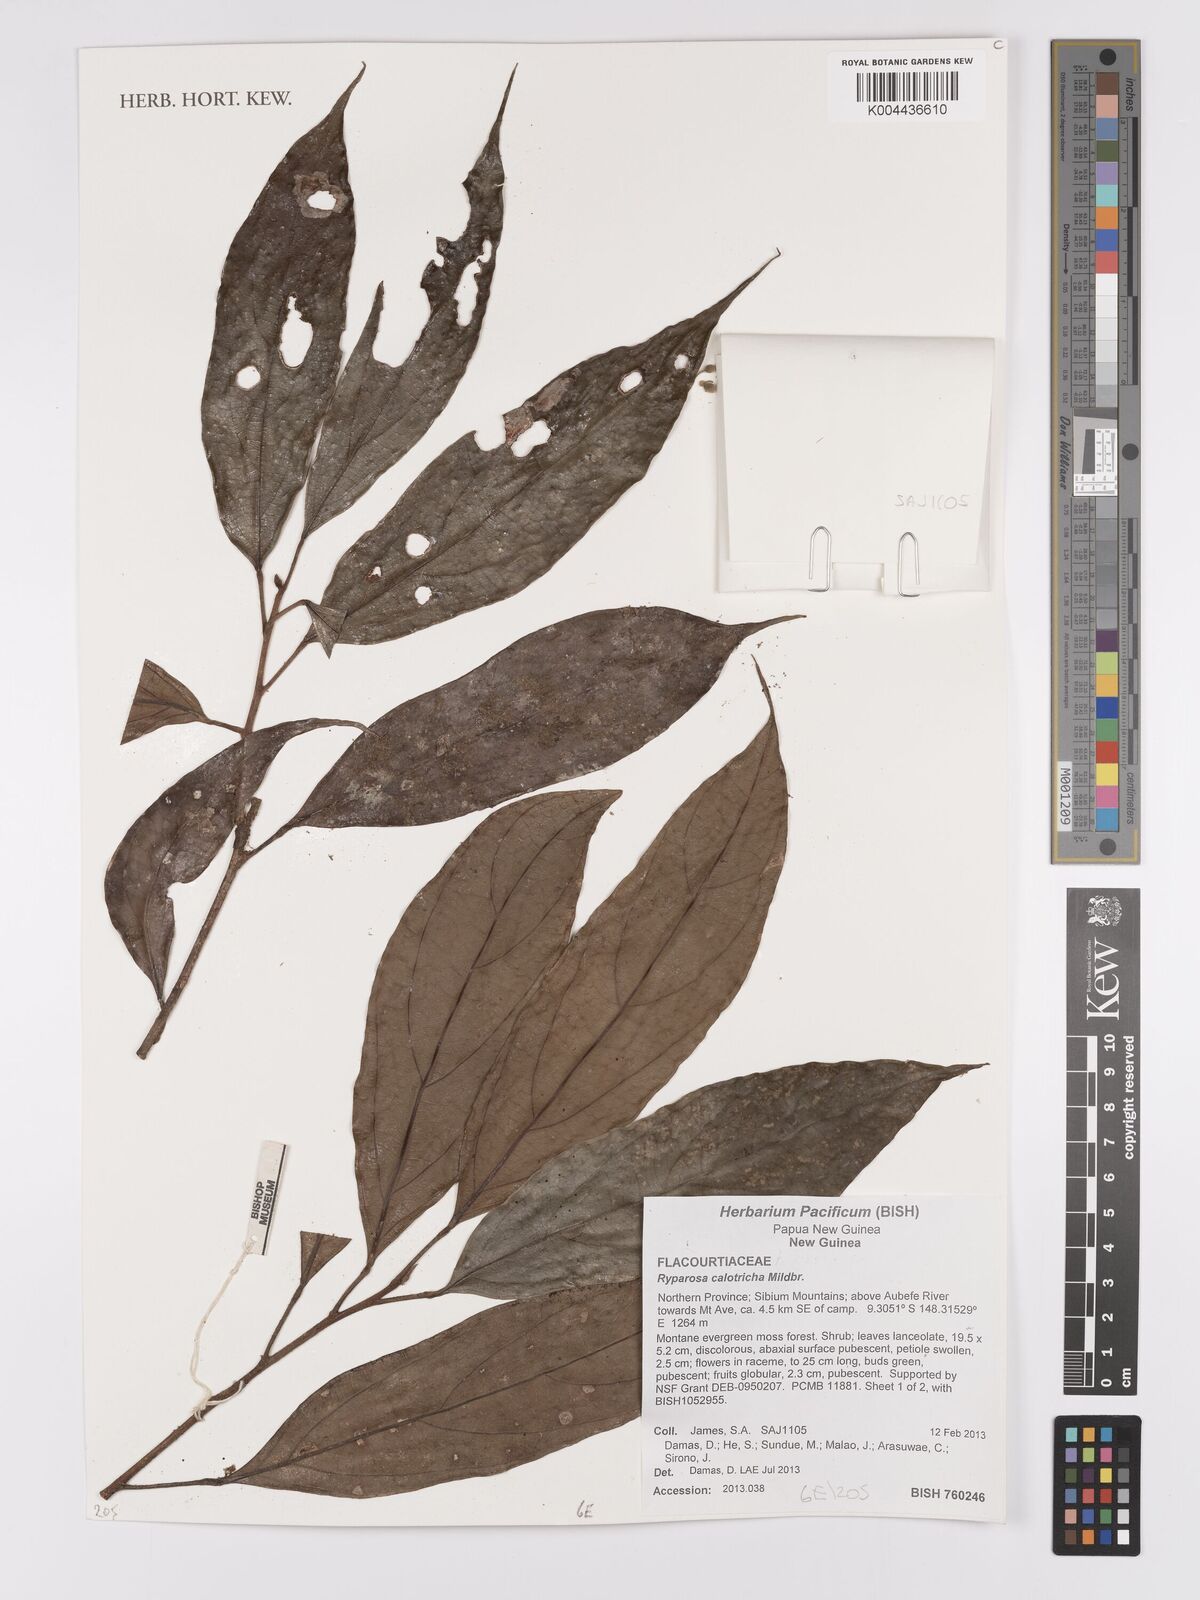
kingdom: Plantae
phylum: Tracheophyta
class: Magnoliopsida
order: Malpighiales
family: Achariaceae
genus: Ryparosa
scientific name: Ryparosa calotricha
